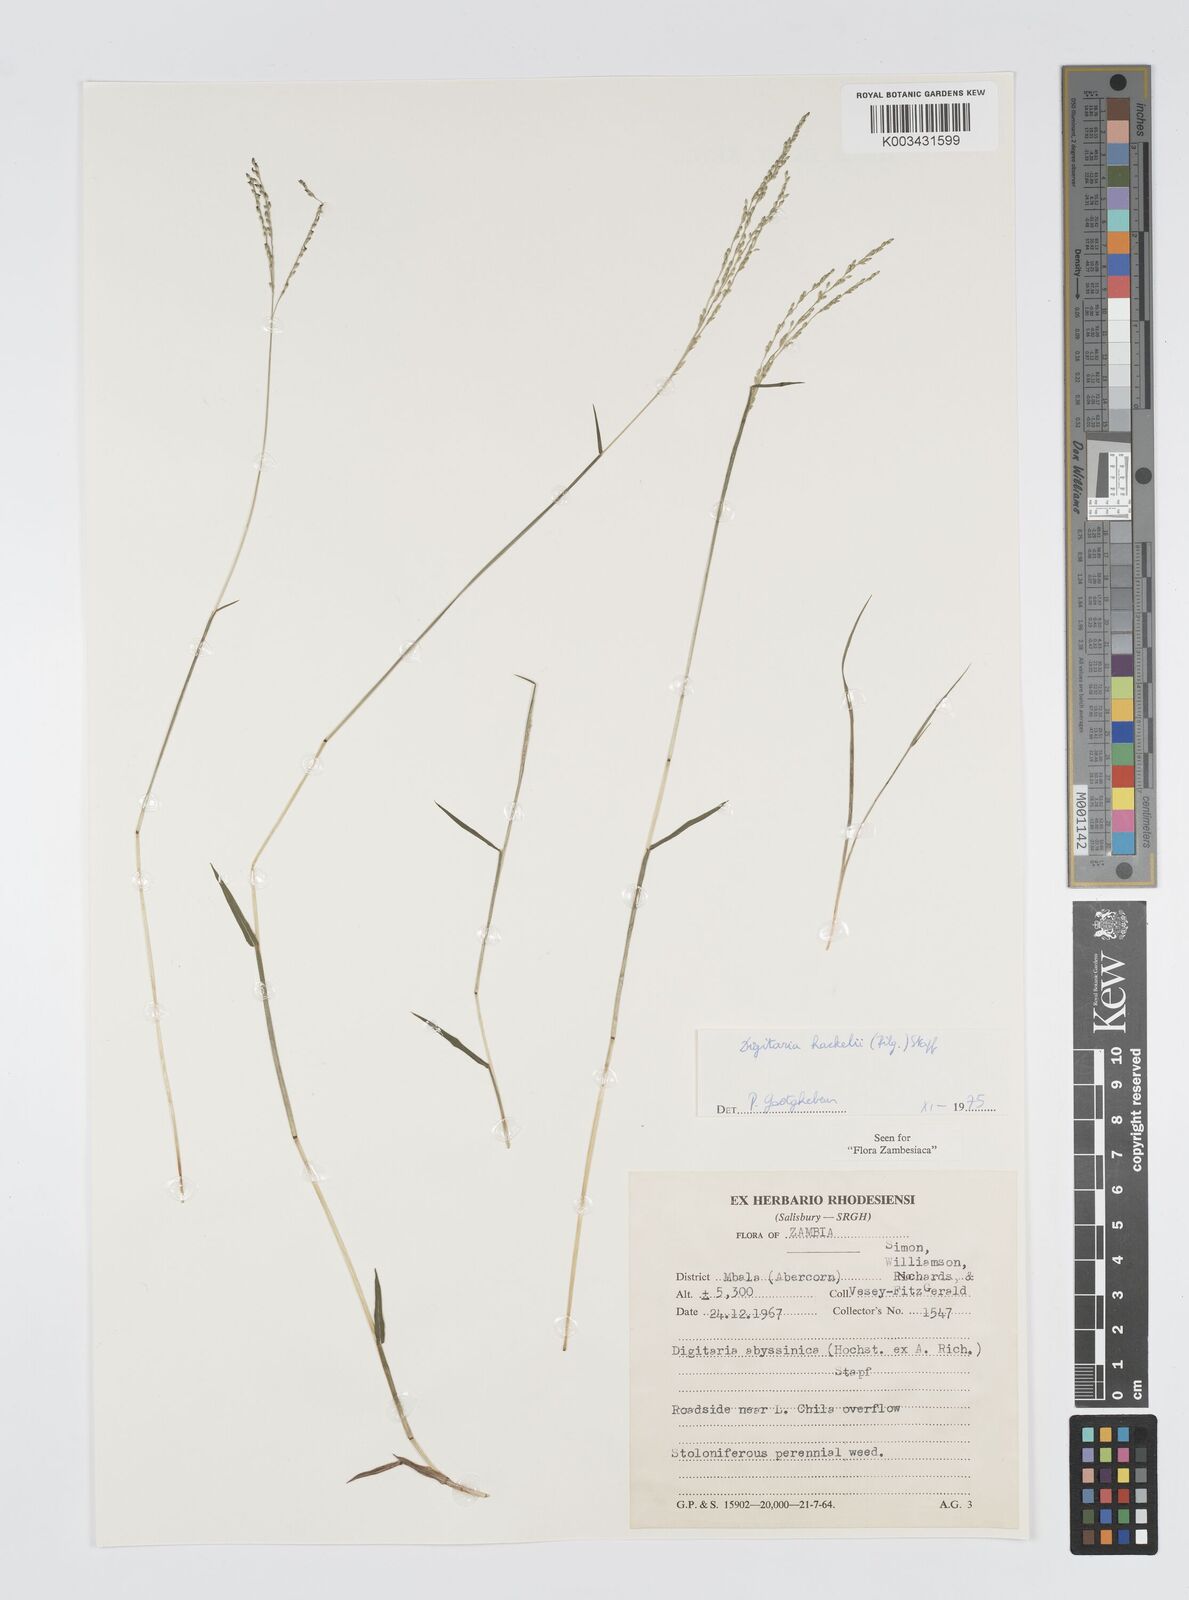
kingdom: Plantae
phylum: Tracheophyta
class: Liliopsida
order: Poales
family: Poaceae
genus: Digitaria
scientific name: Digitaria abyssinica
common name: African couchgrass
